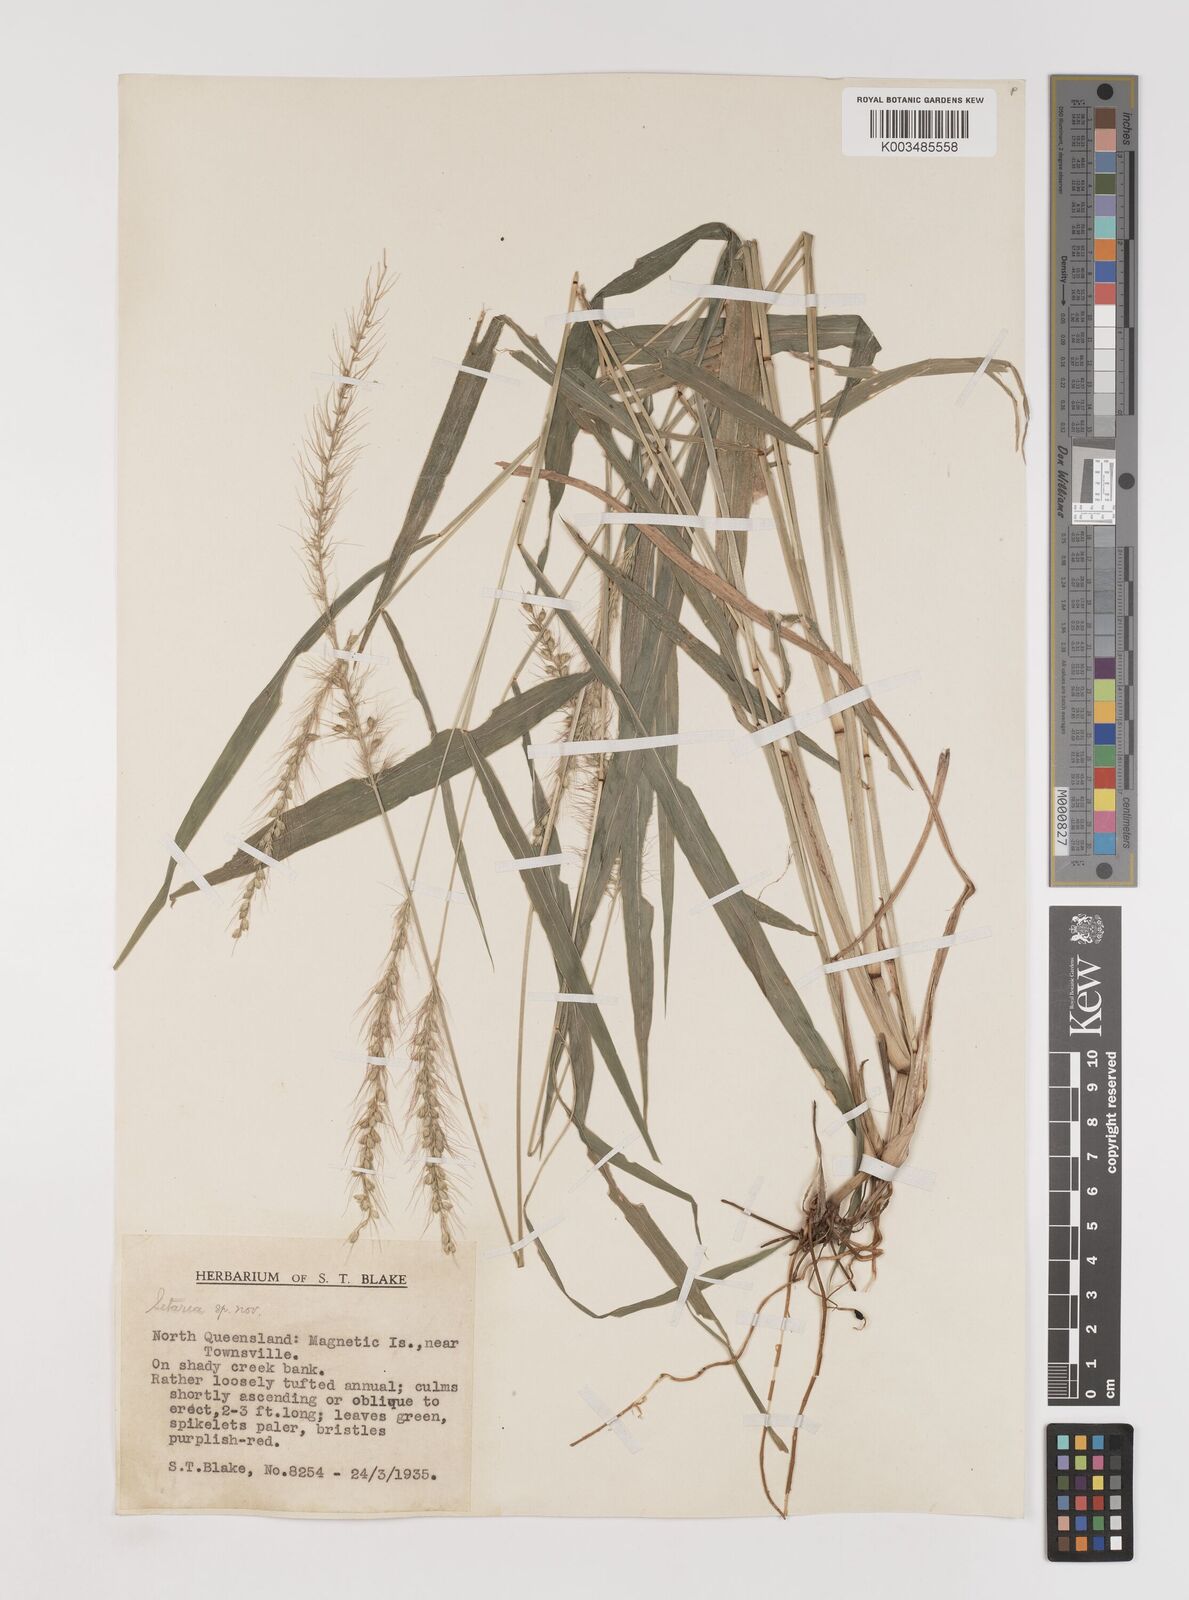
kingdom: Plantae
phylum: Tracheophyta
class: Liliopsida
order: Poales
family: Poaceae
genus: Setaria
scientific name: Setaria
